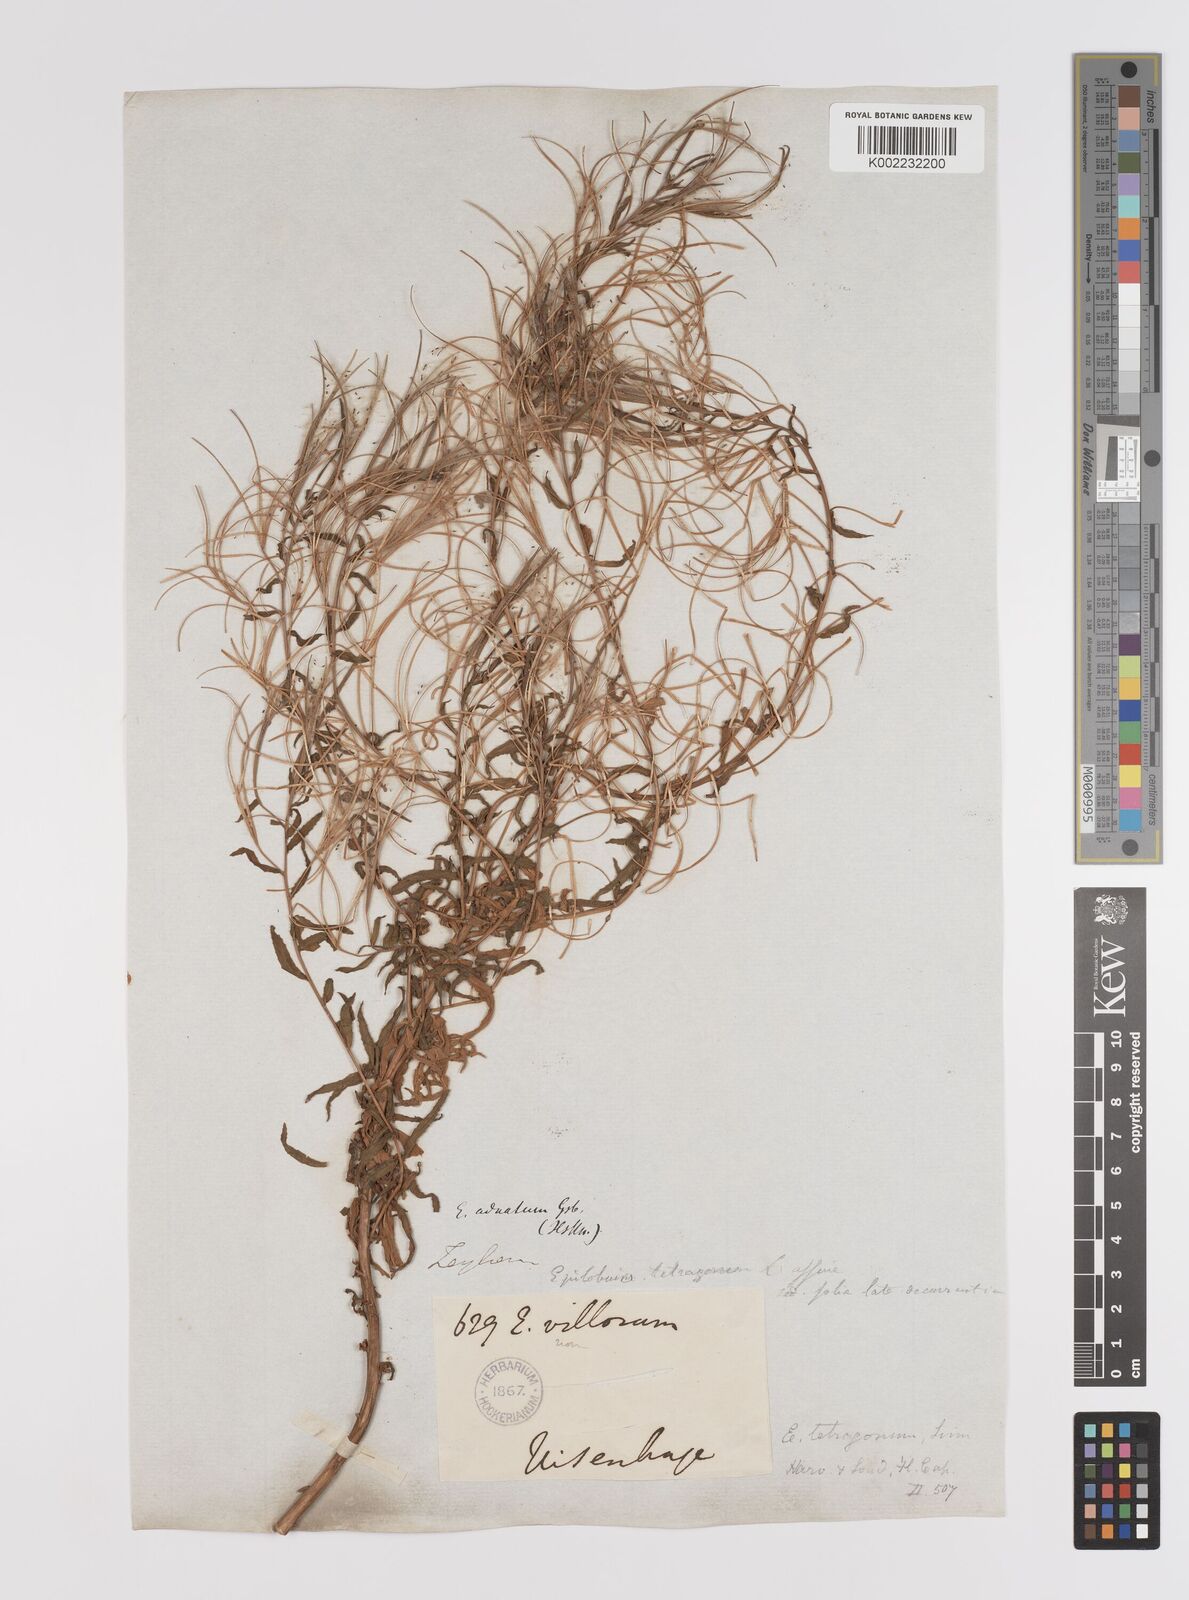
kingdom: Plantae
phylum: Tracheophyta
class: Magnoliopsida
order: Myrtales
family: Onagraceae
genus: Epilobium
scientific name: Epilobium tetragonum
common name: Square-stemmed willowherb
